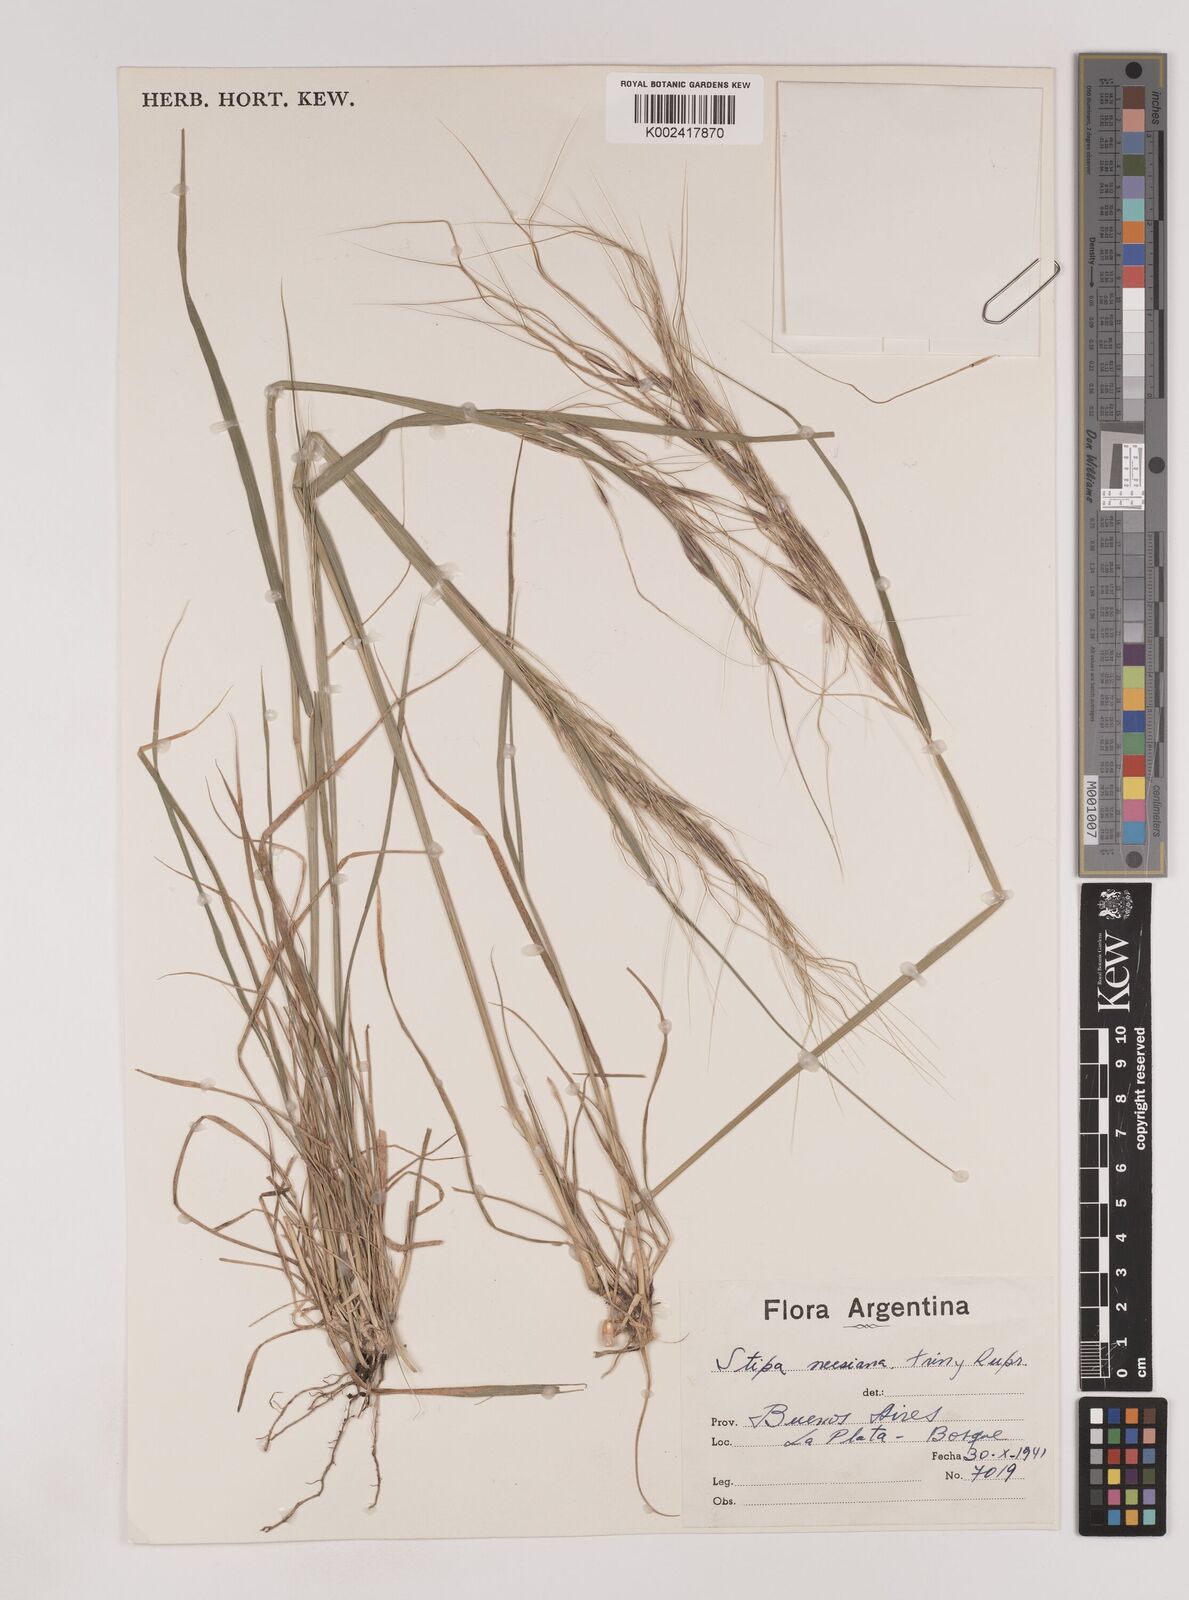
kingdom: Plantae
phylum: Tracheophyta
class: Liliopsida
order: Poales
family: Poaceae
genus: Nassella
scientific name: Nassella neesiana
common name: American needle-grass
